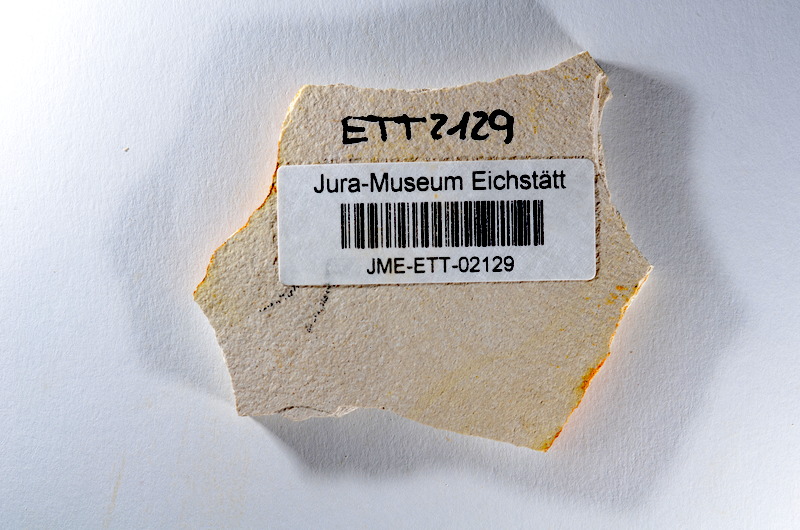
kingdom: Animalia
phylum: Chordata
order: Salmoniformes
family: Orthogonikleithridae
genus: Orthogonikleithrus
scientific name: Orthogonikleithrus hoelli
